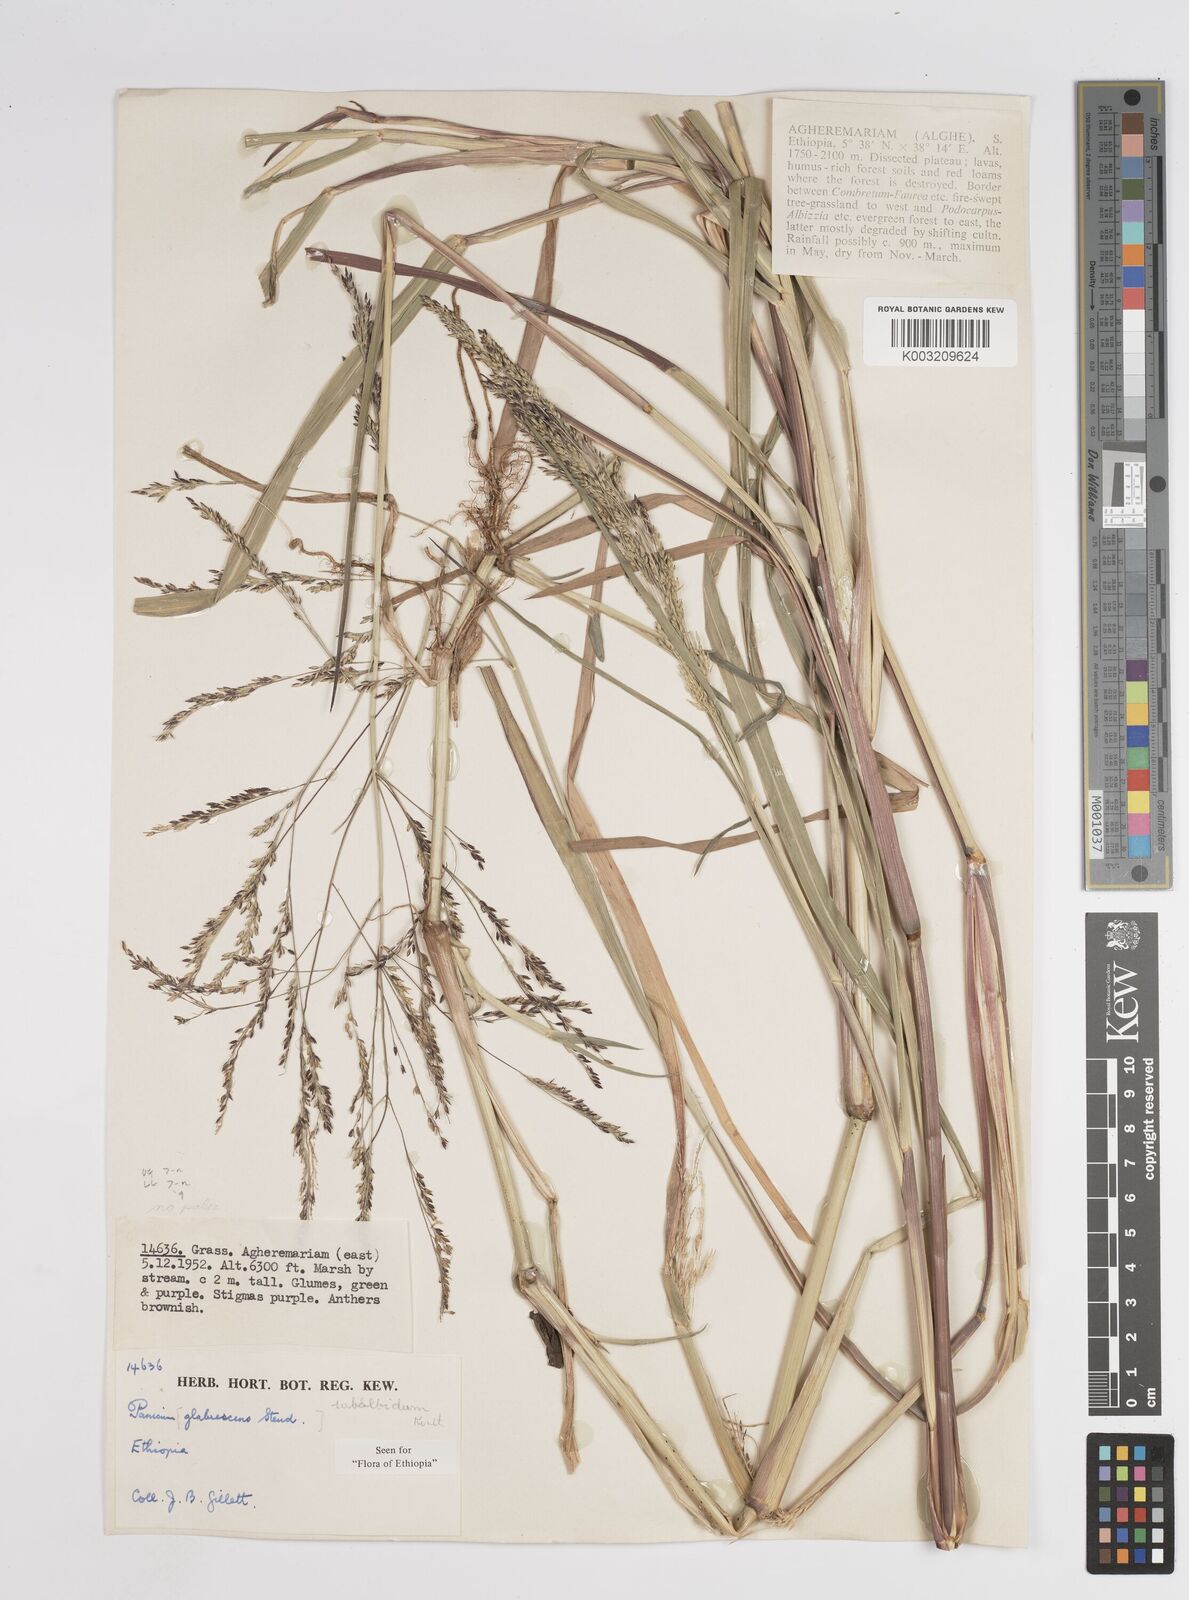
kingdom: Plantae
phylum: Tracheophyta
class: Liliopsida
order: Poales
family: Poaceae
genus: Panicum
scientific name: Panicum subalbidum
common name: Elbow buffalo grass
